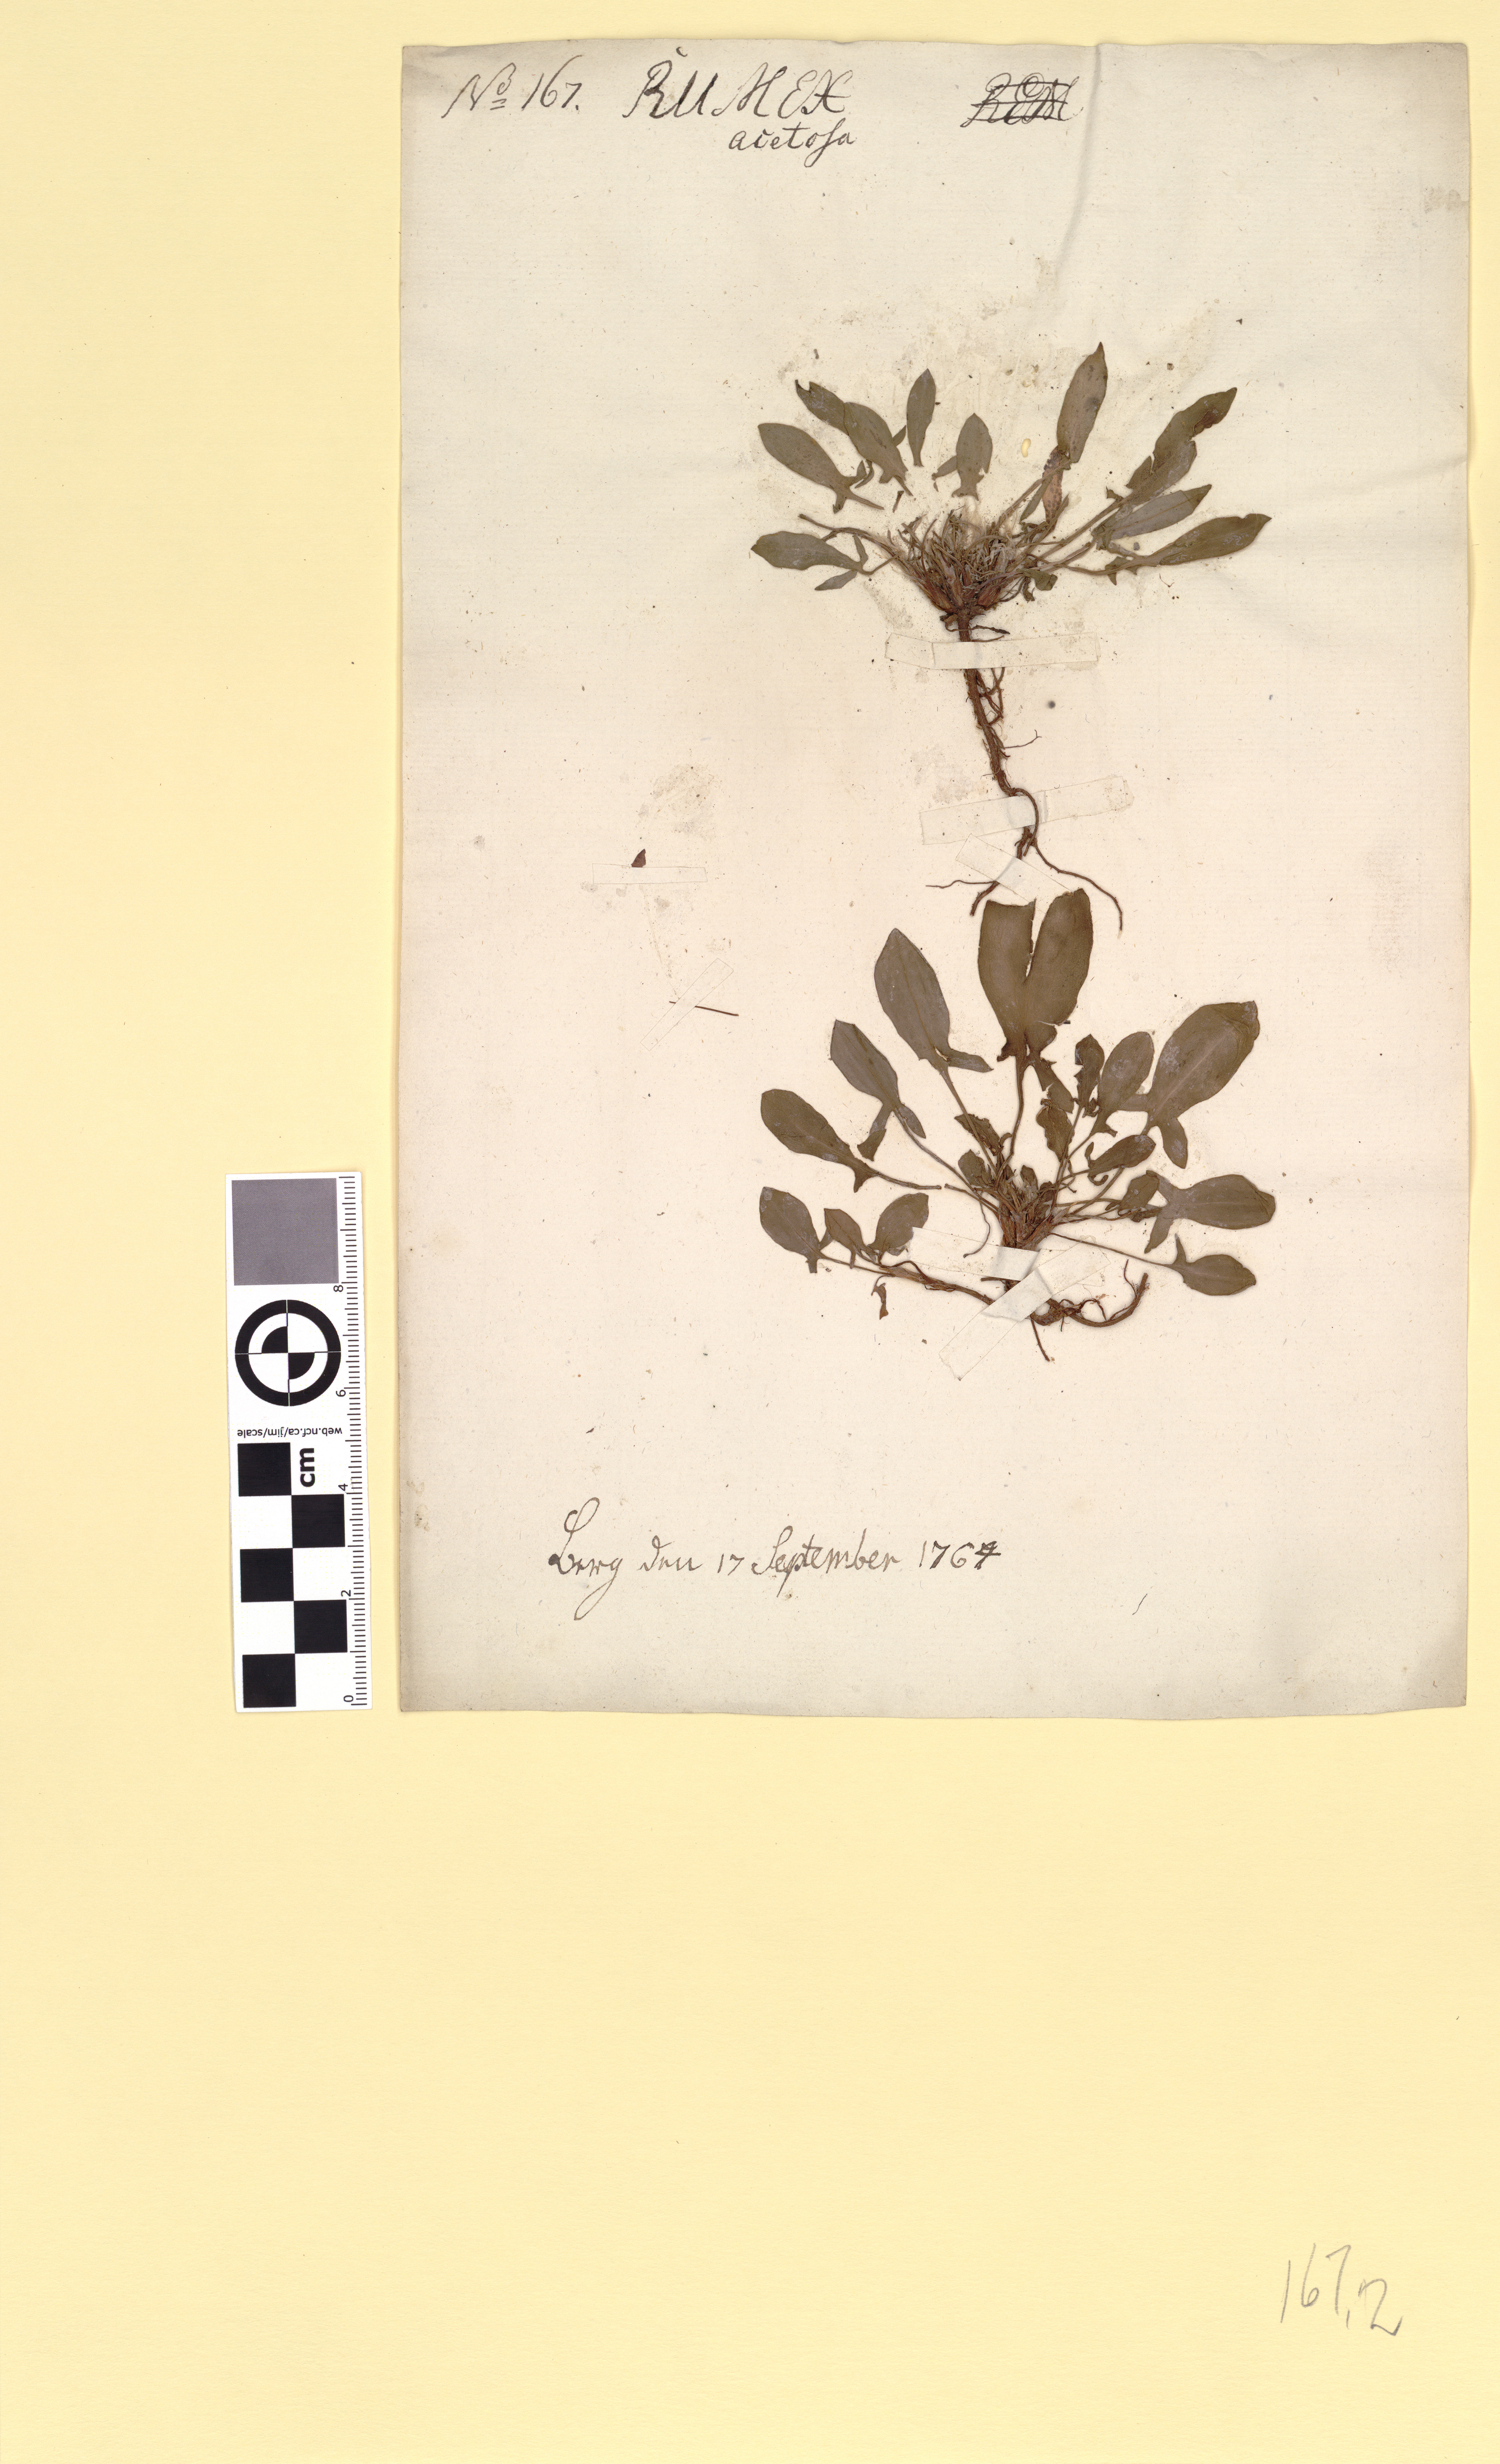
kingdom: Plantae
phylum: Tracheophyta
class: Magnoliopsida
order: Caryophyllales
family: Polygonaceae
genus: Rumex
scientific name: Rumex acetosella
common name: Common sheep sorrel
